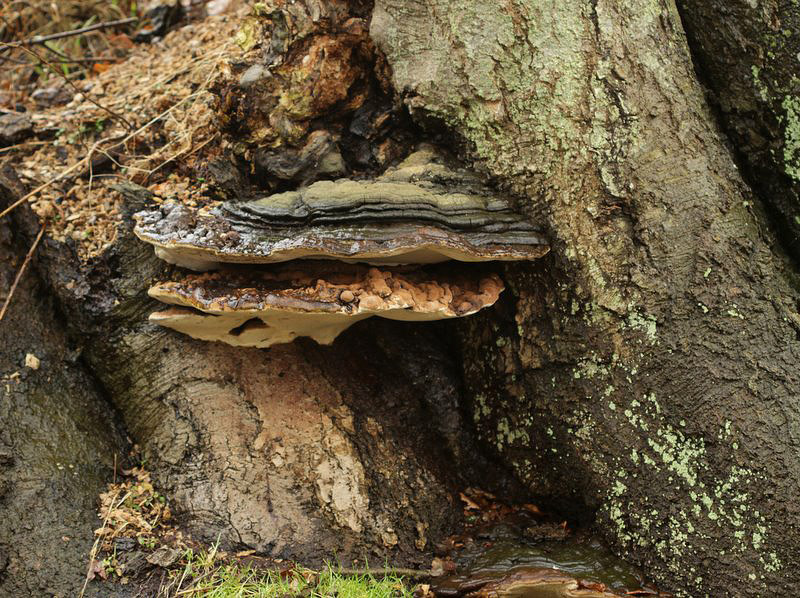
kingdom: Fungi
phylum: Basidiomycota
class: Agaricomycetes
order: Polyporales
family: Polyporaceae
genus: Ganoderma
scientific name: Ganoderma applanatum
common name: flad lakporesvamp
